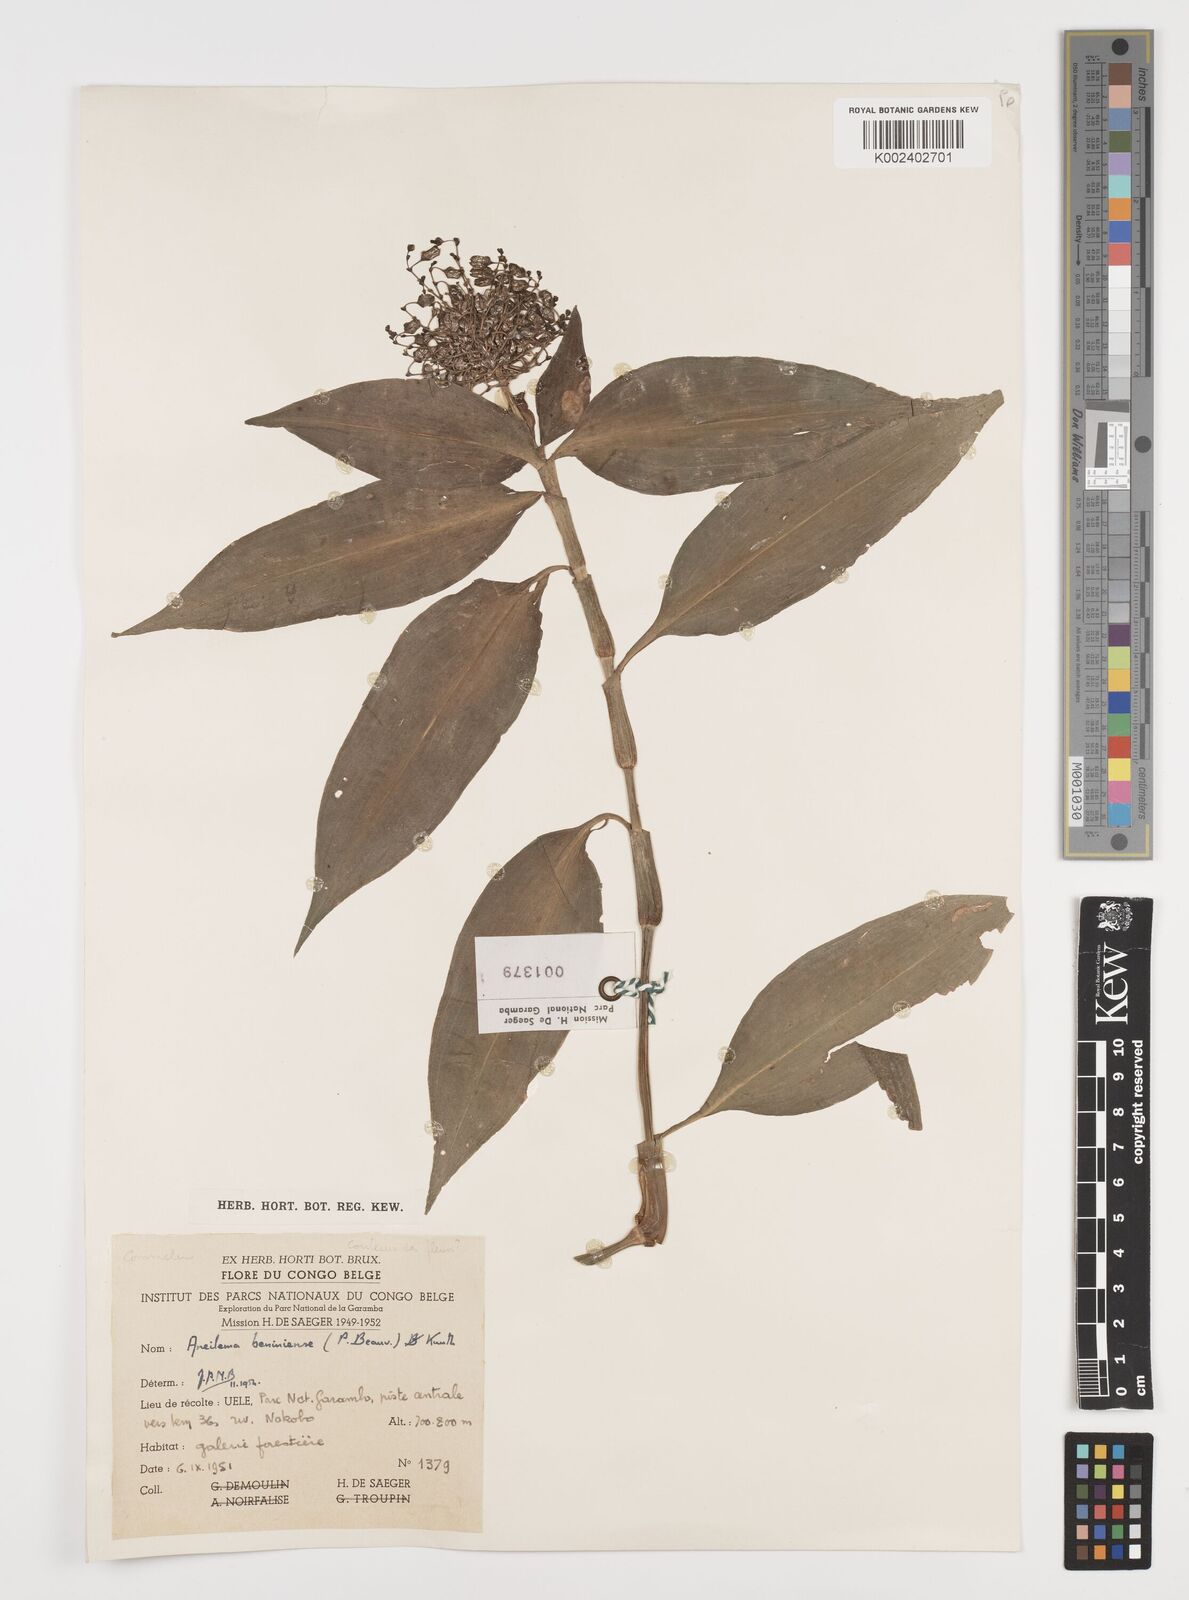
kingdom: Plantae
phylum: Tracheophyta
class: Liliopsida
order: Commelinales
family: Commelinaceae
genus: Aneilema
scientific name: Aneilema beniniense
